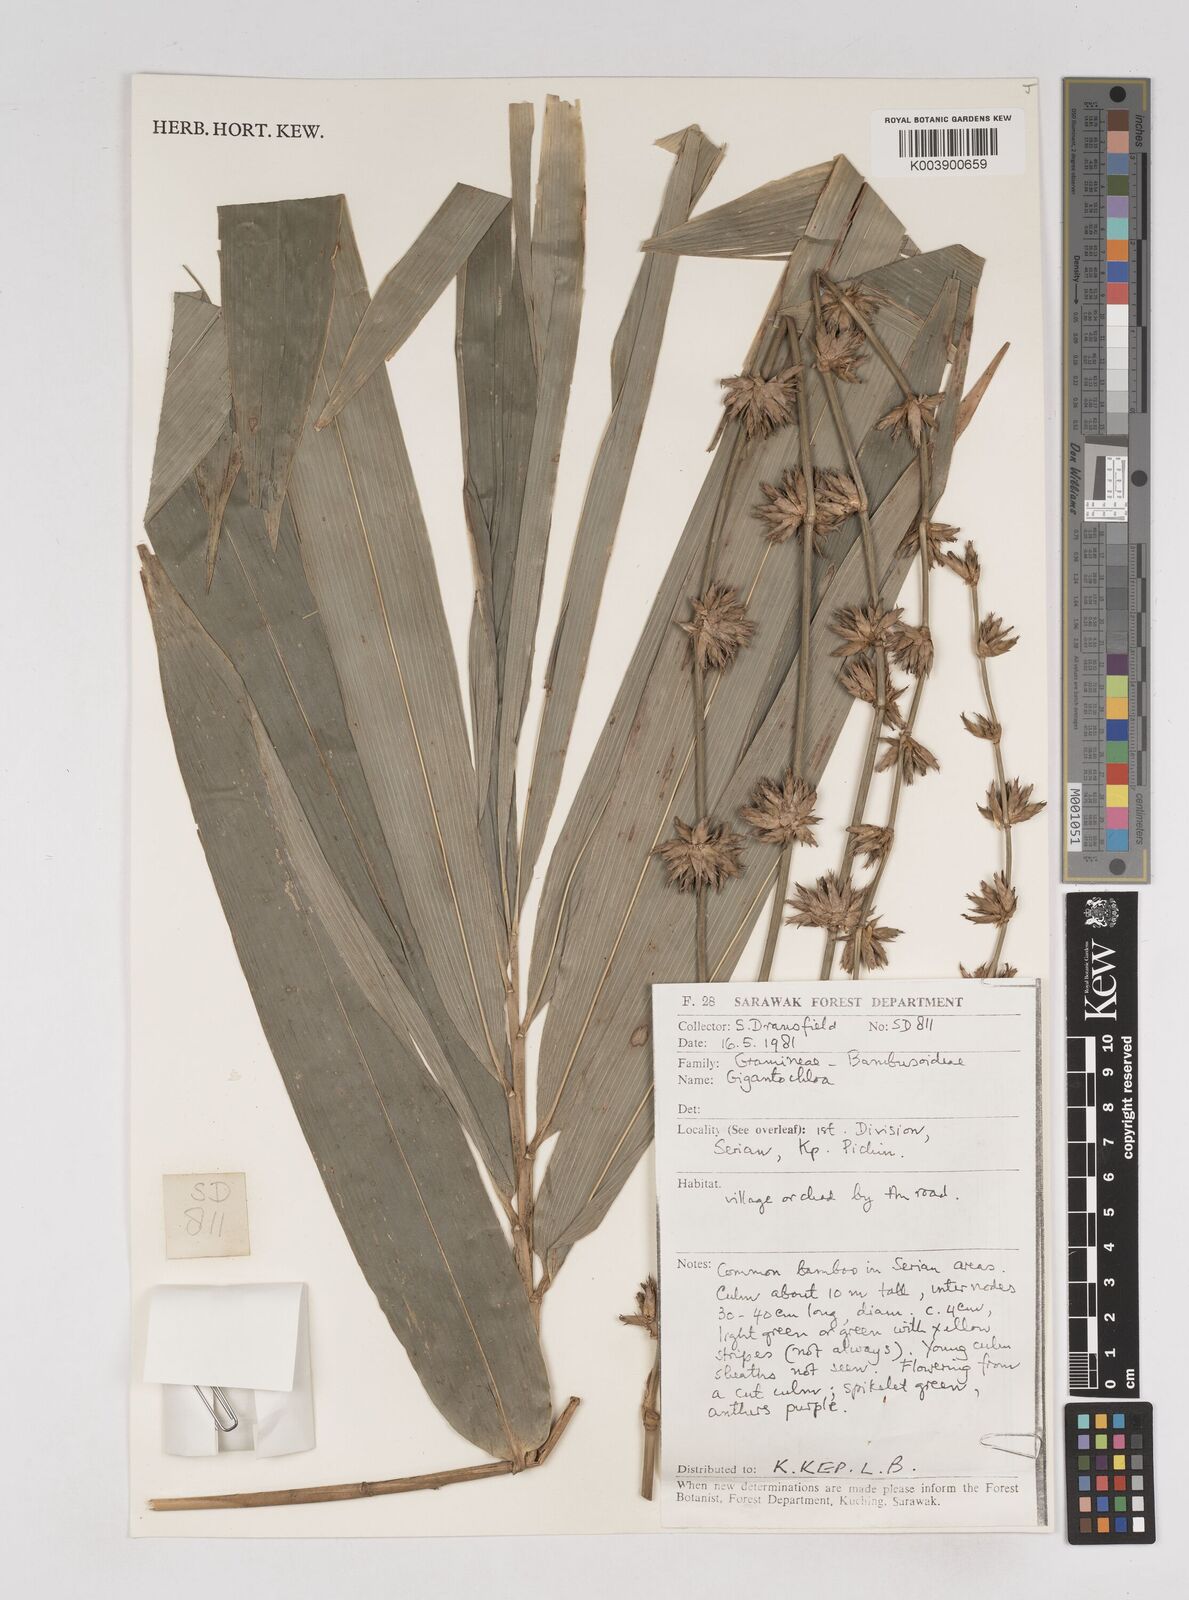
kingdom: Plantae
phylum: Tracheophyta
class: Liliopsida
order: Poales
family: Poaceae
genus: Gigantochloa
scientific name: Gigantochloa
